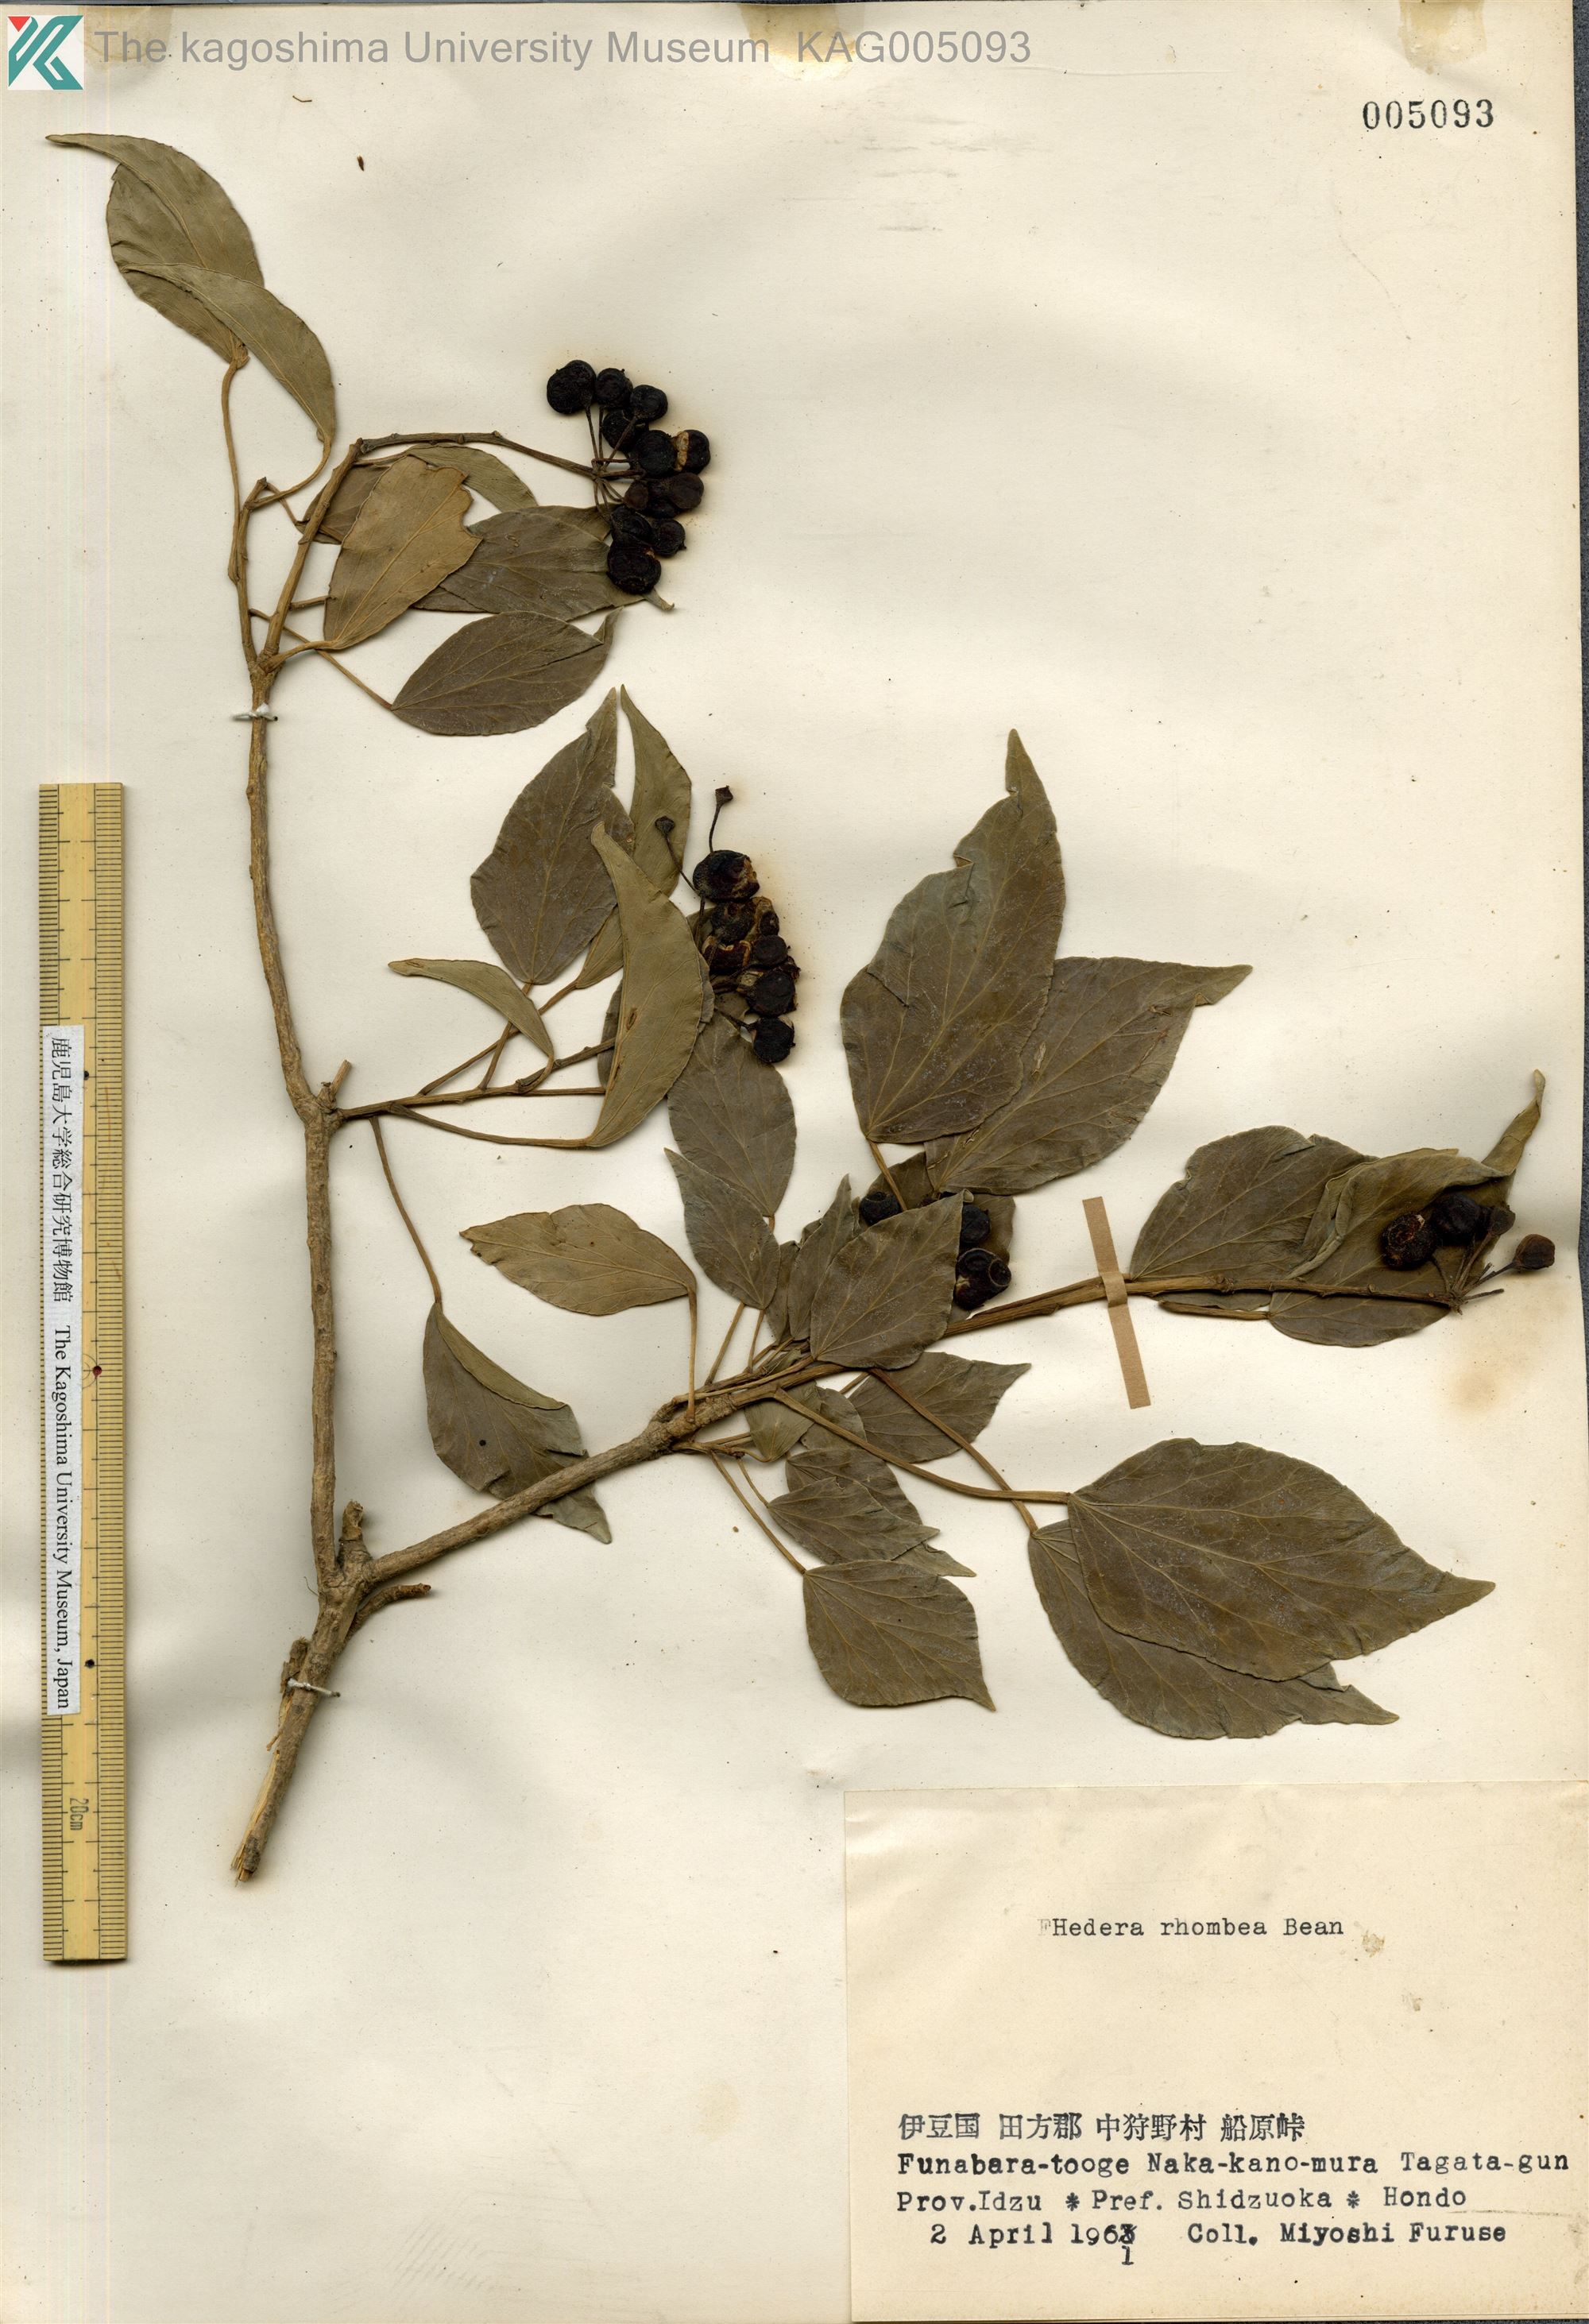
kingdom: Plantae
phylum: Tracheophyta
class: Magnoliopsida
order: Apiales
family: Araliaceae
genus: Hedera
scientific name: Hedera rhombea
